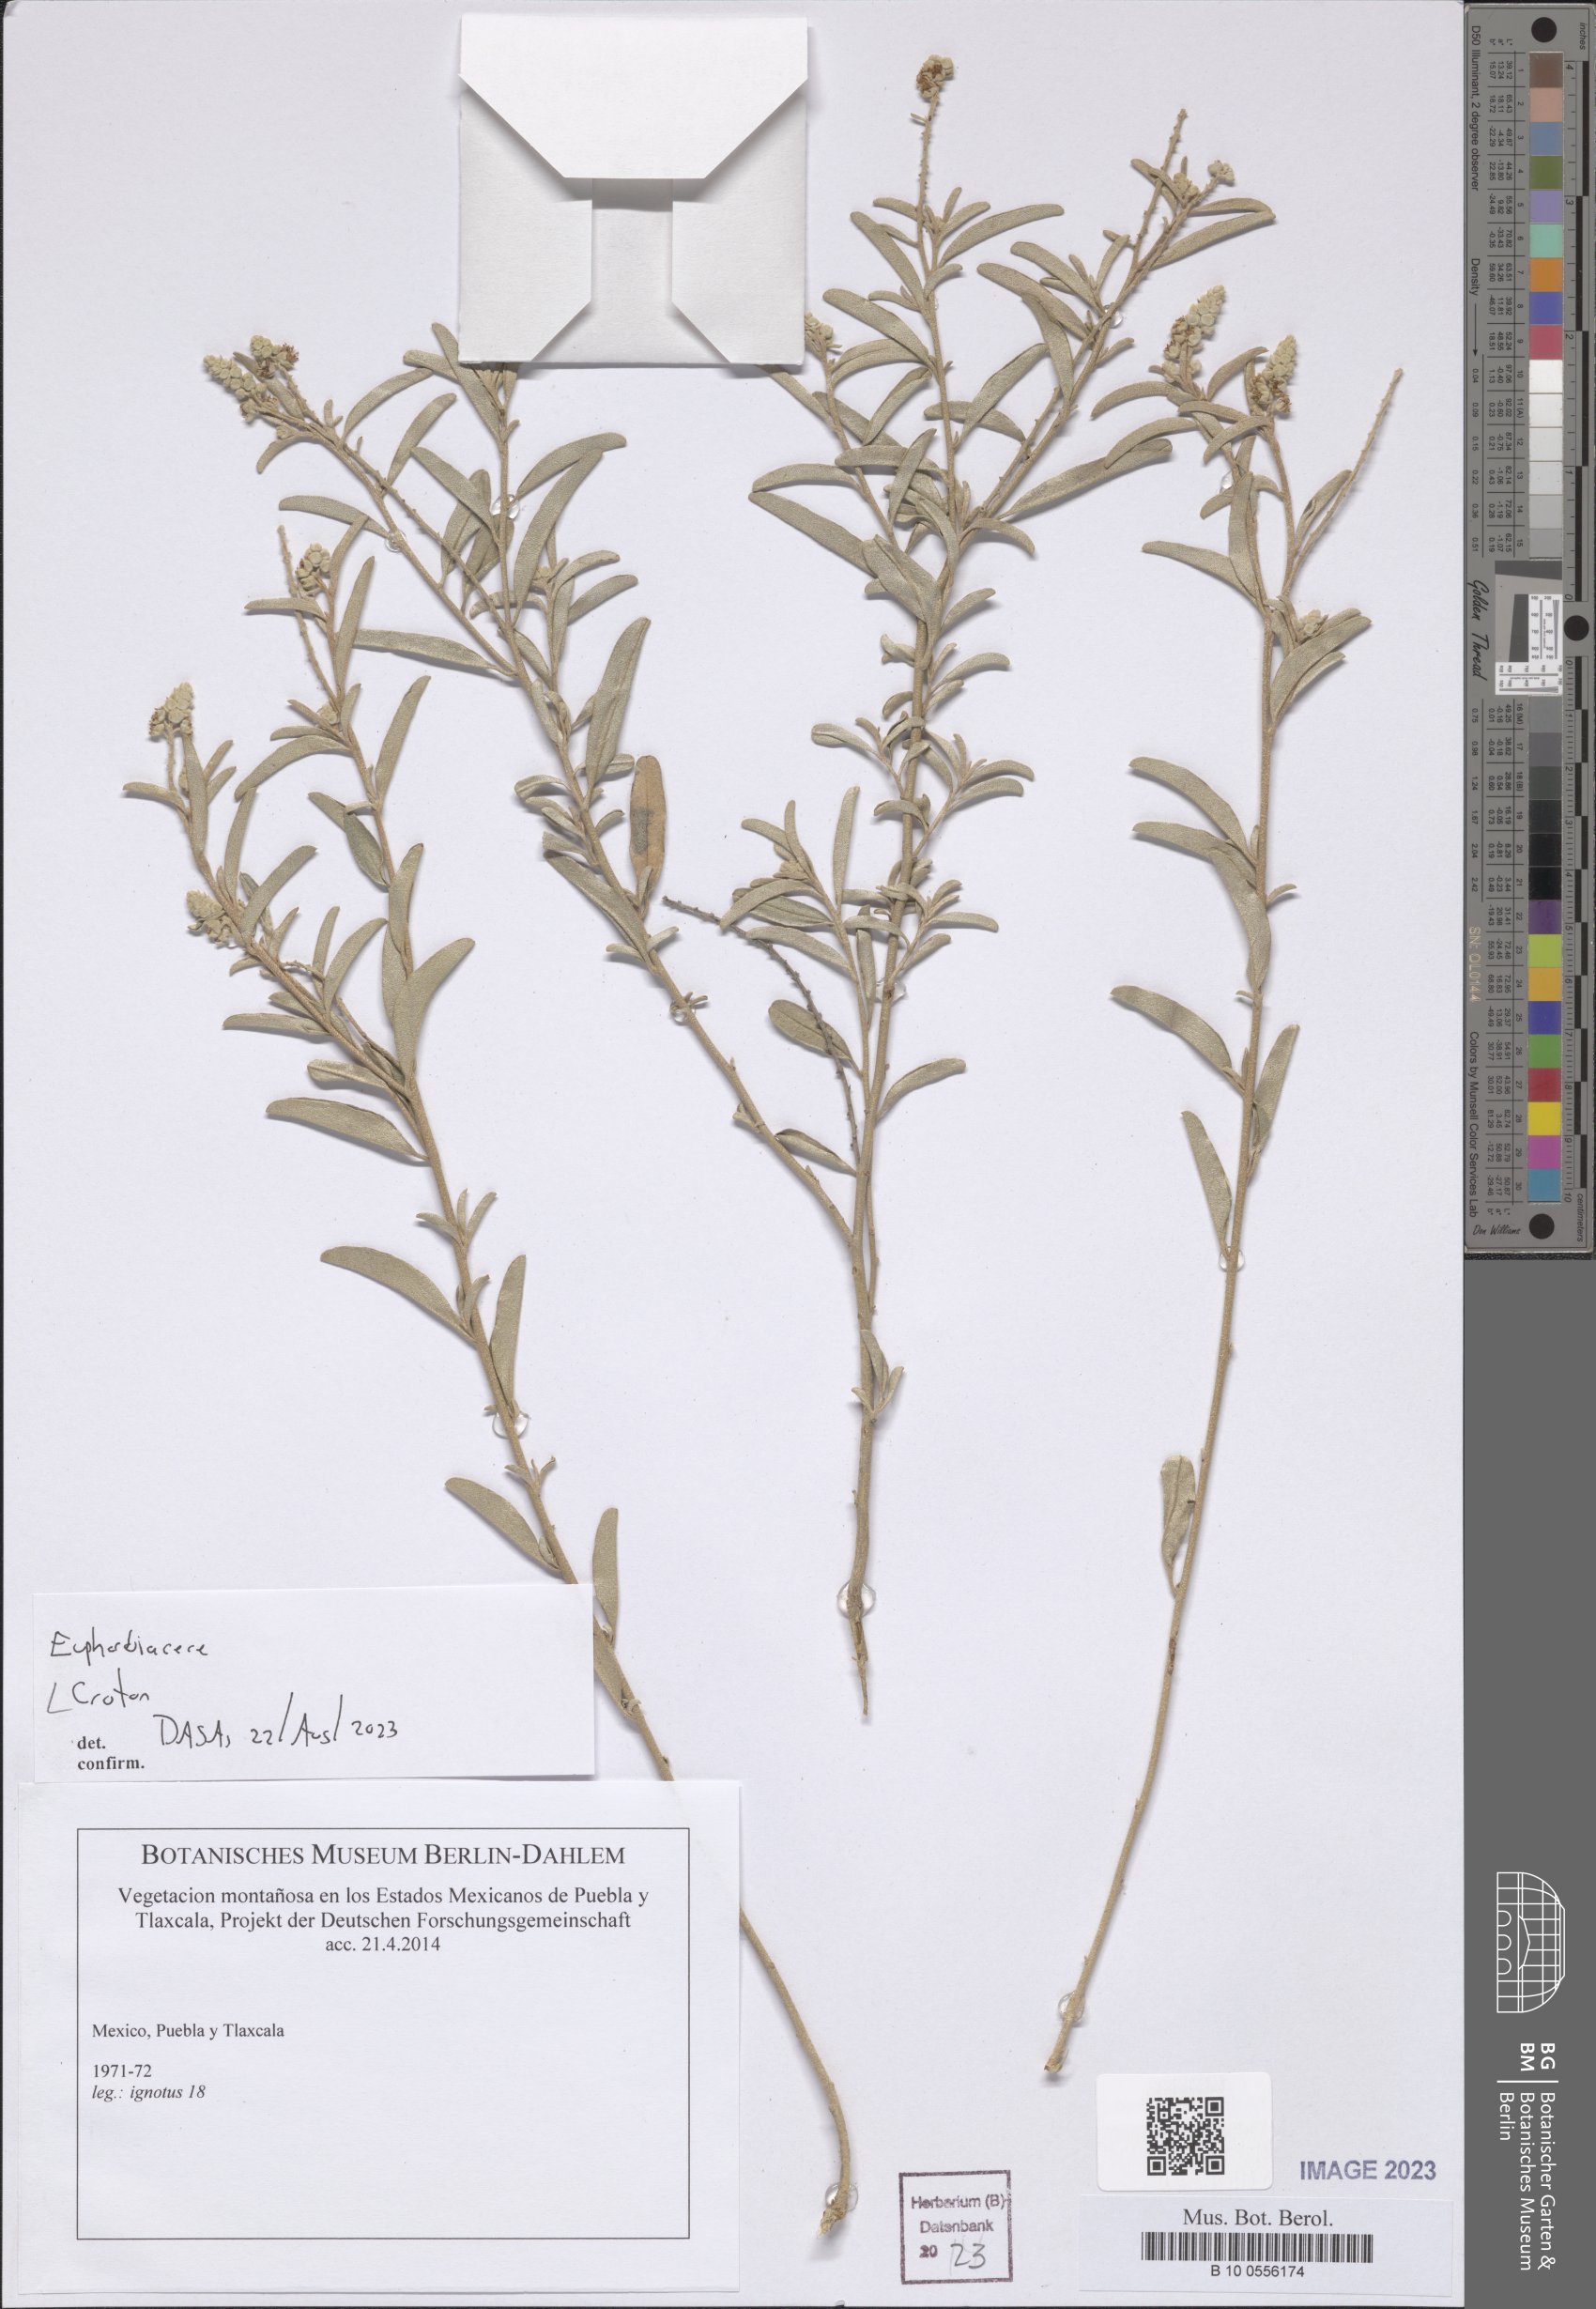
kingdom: Plantae
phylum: Tracheophyta
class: Magnoliopsida
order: Malpighiales
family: Euphorbiaceae
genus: Croton
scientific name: Croton
